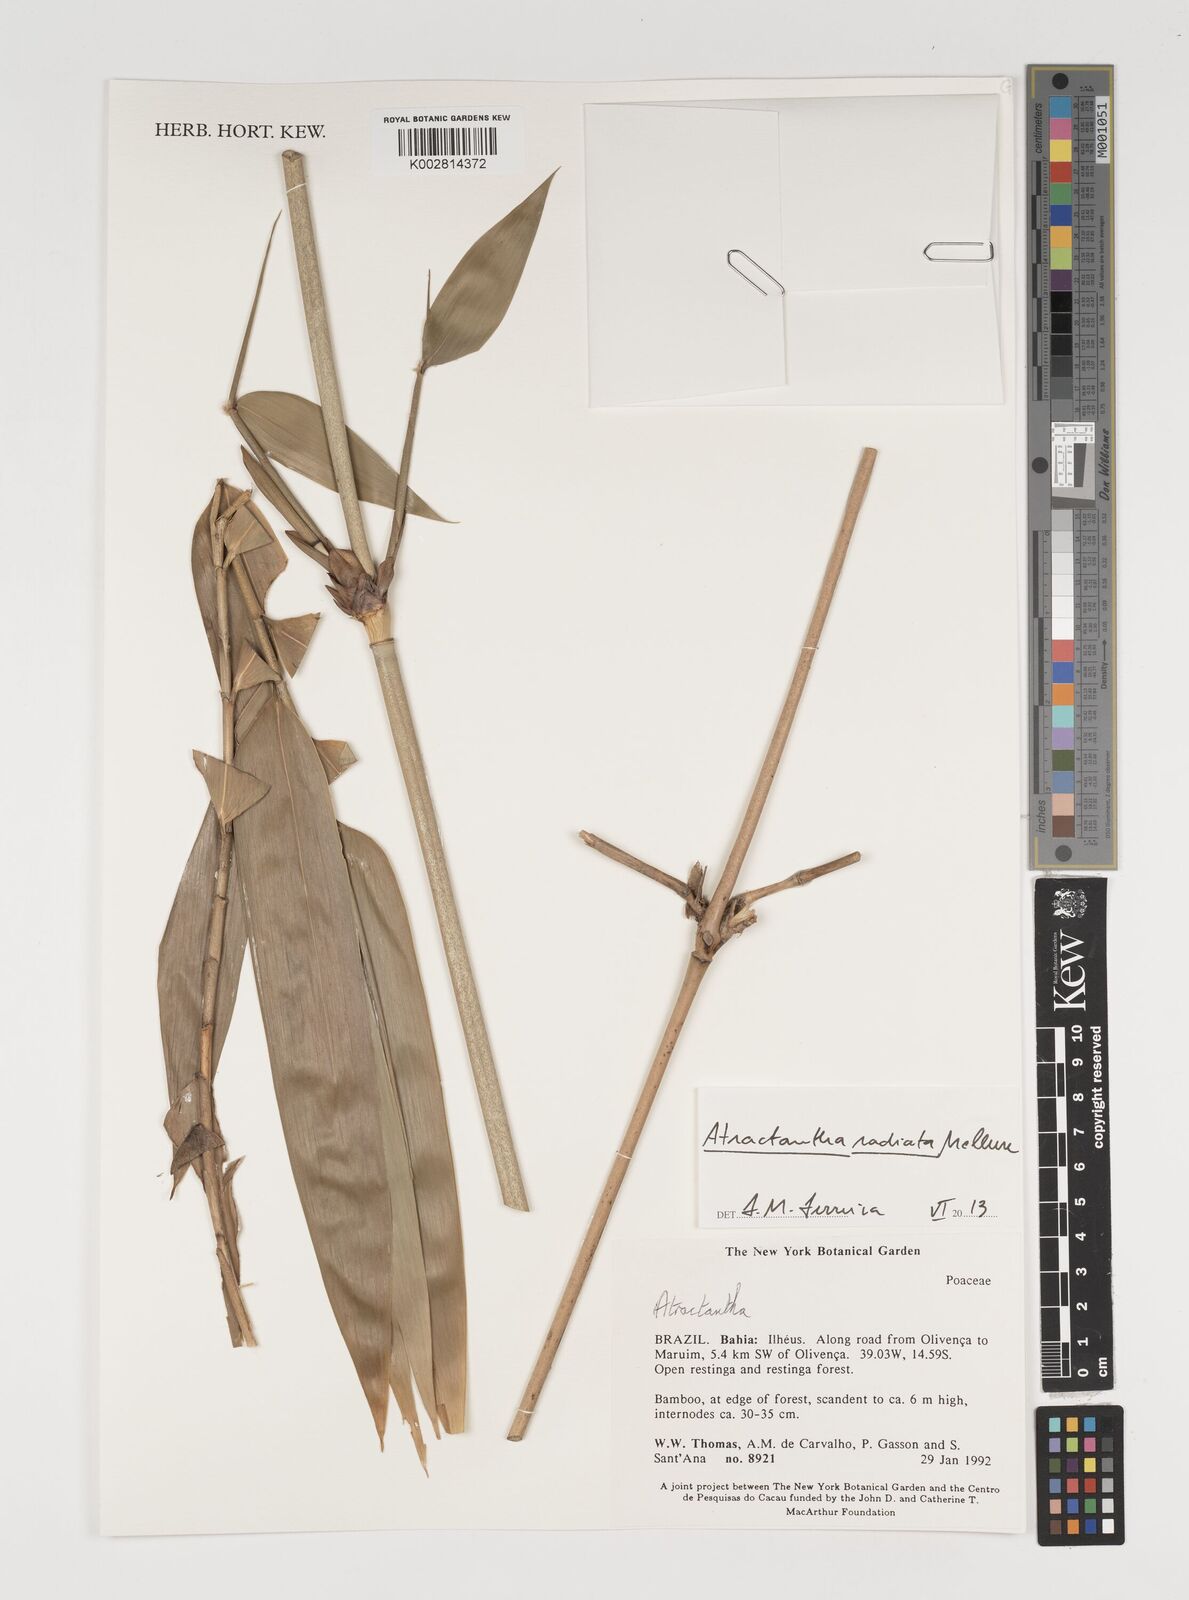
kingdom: Plantae
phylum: Tracheophyta
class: Liliopsida
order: Poales
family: Poaceae
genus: Atractantha
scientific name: Atractantha radiata
